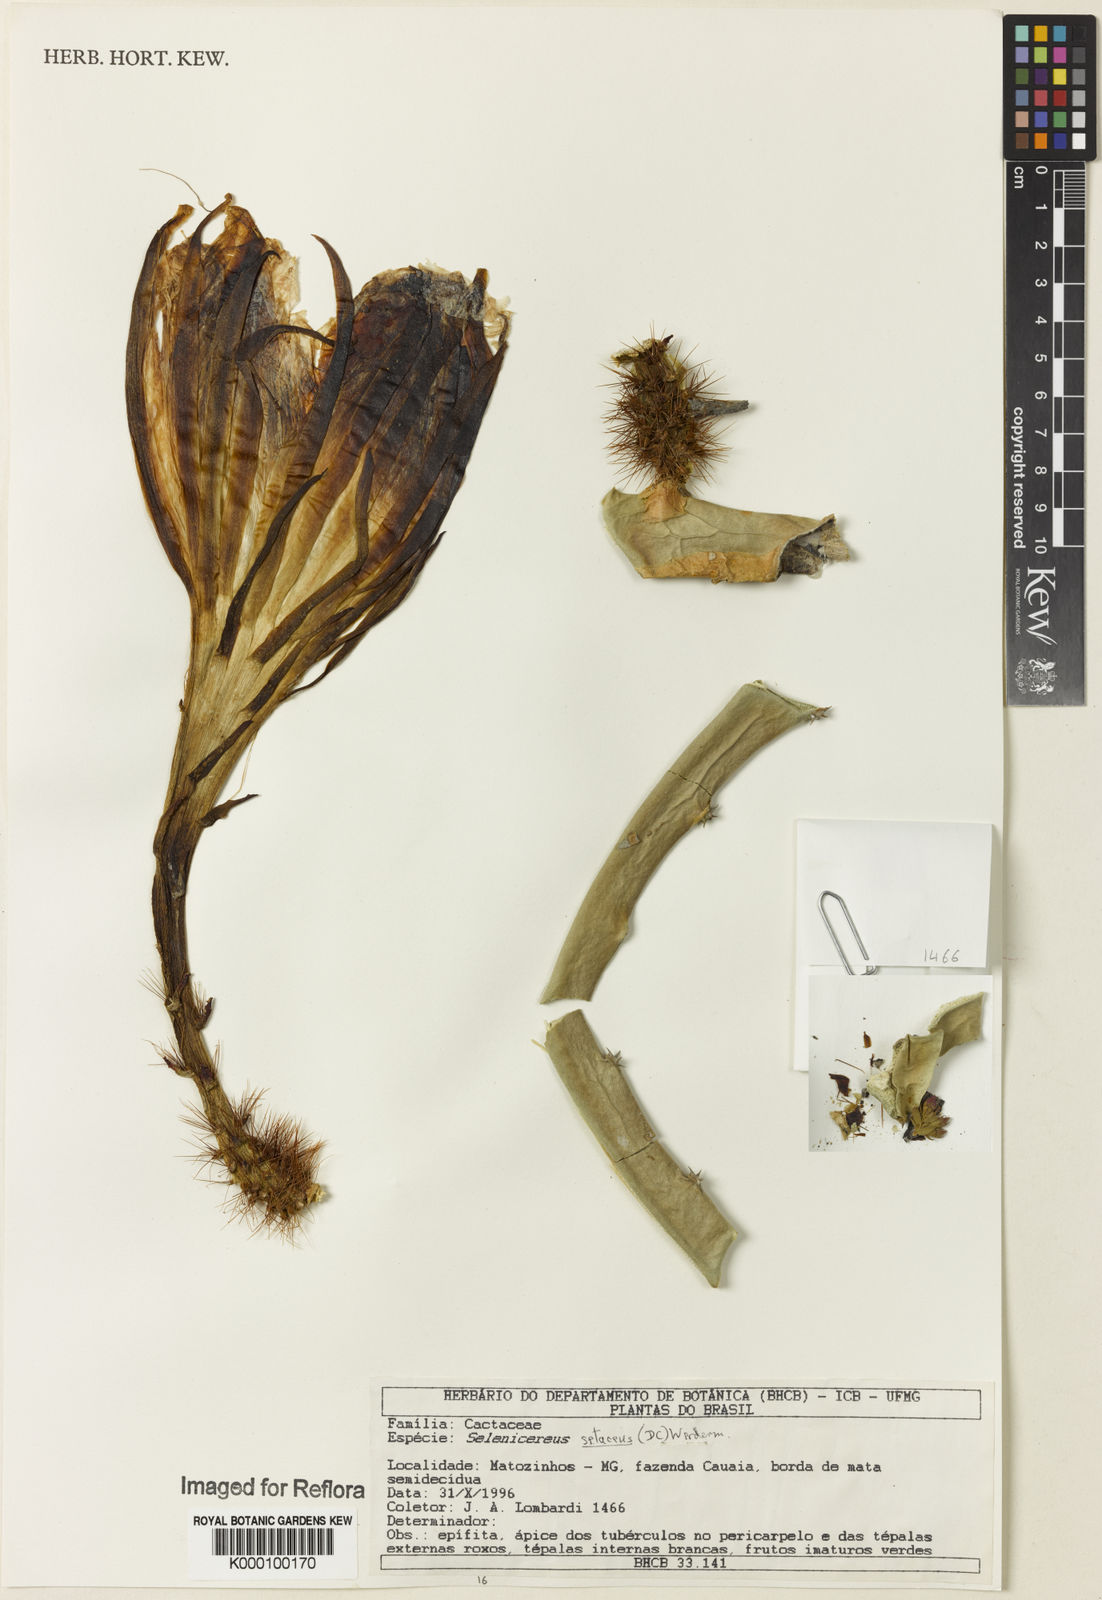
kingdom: Plantae
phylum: Tracheophyta
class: Magnoliopsida
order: Caryophyllales
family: Cactaceae
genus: Selenicereus
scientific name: Selenicereus
